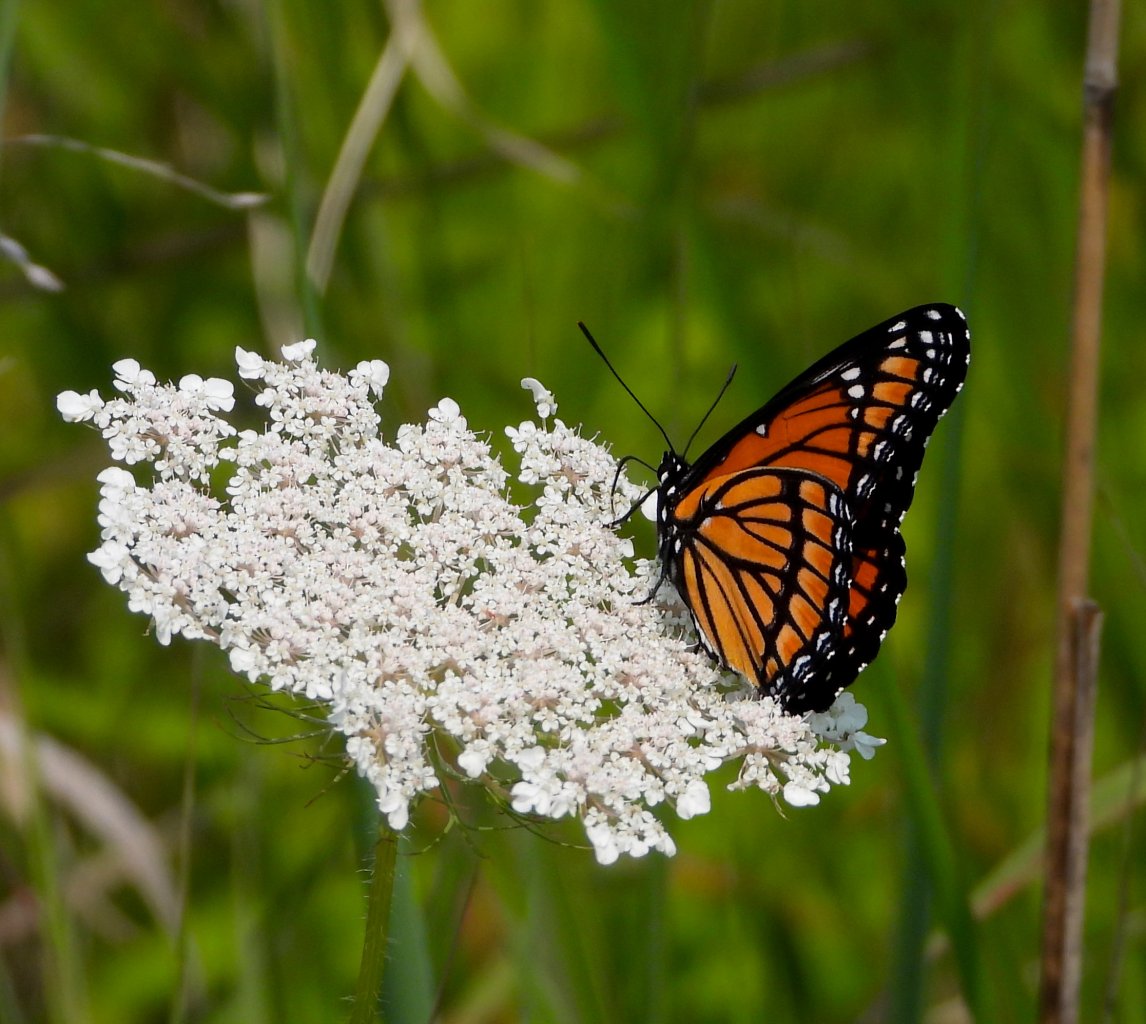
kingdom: Animalia
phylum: Arthropoda
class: Insecta
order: Lepidoptera
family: Nymphalidae
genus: Limenitis
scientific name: Limenitis archippus
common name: Viceroy
